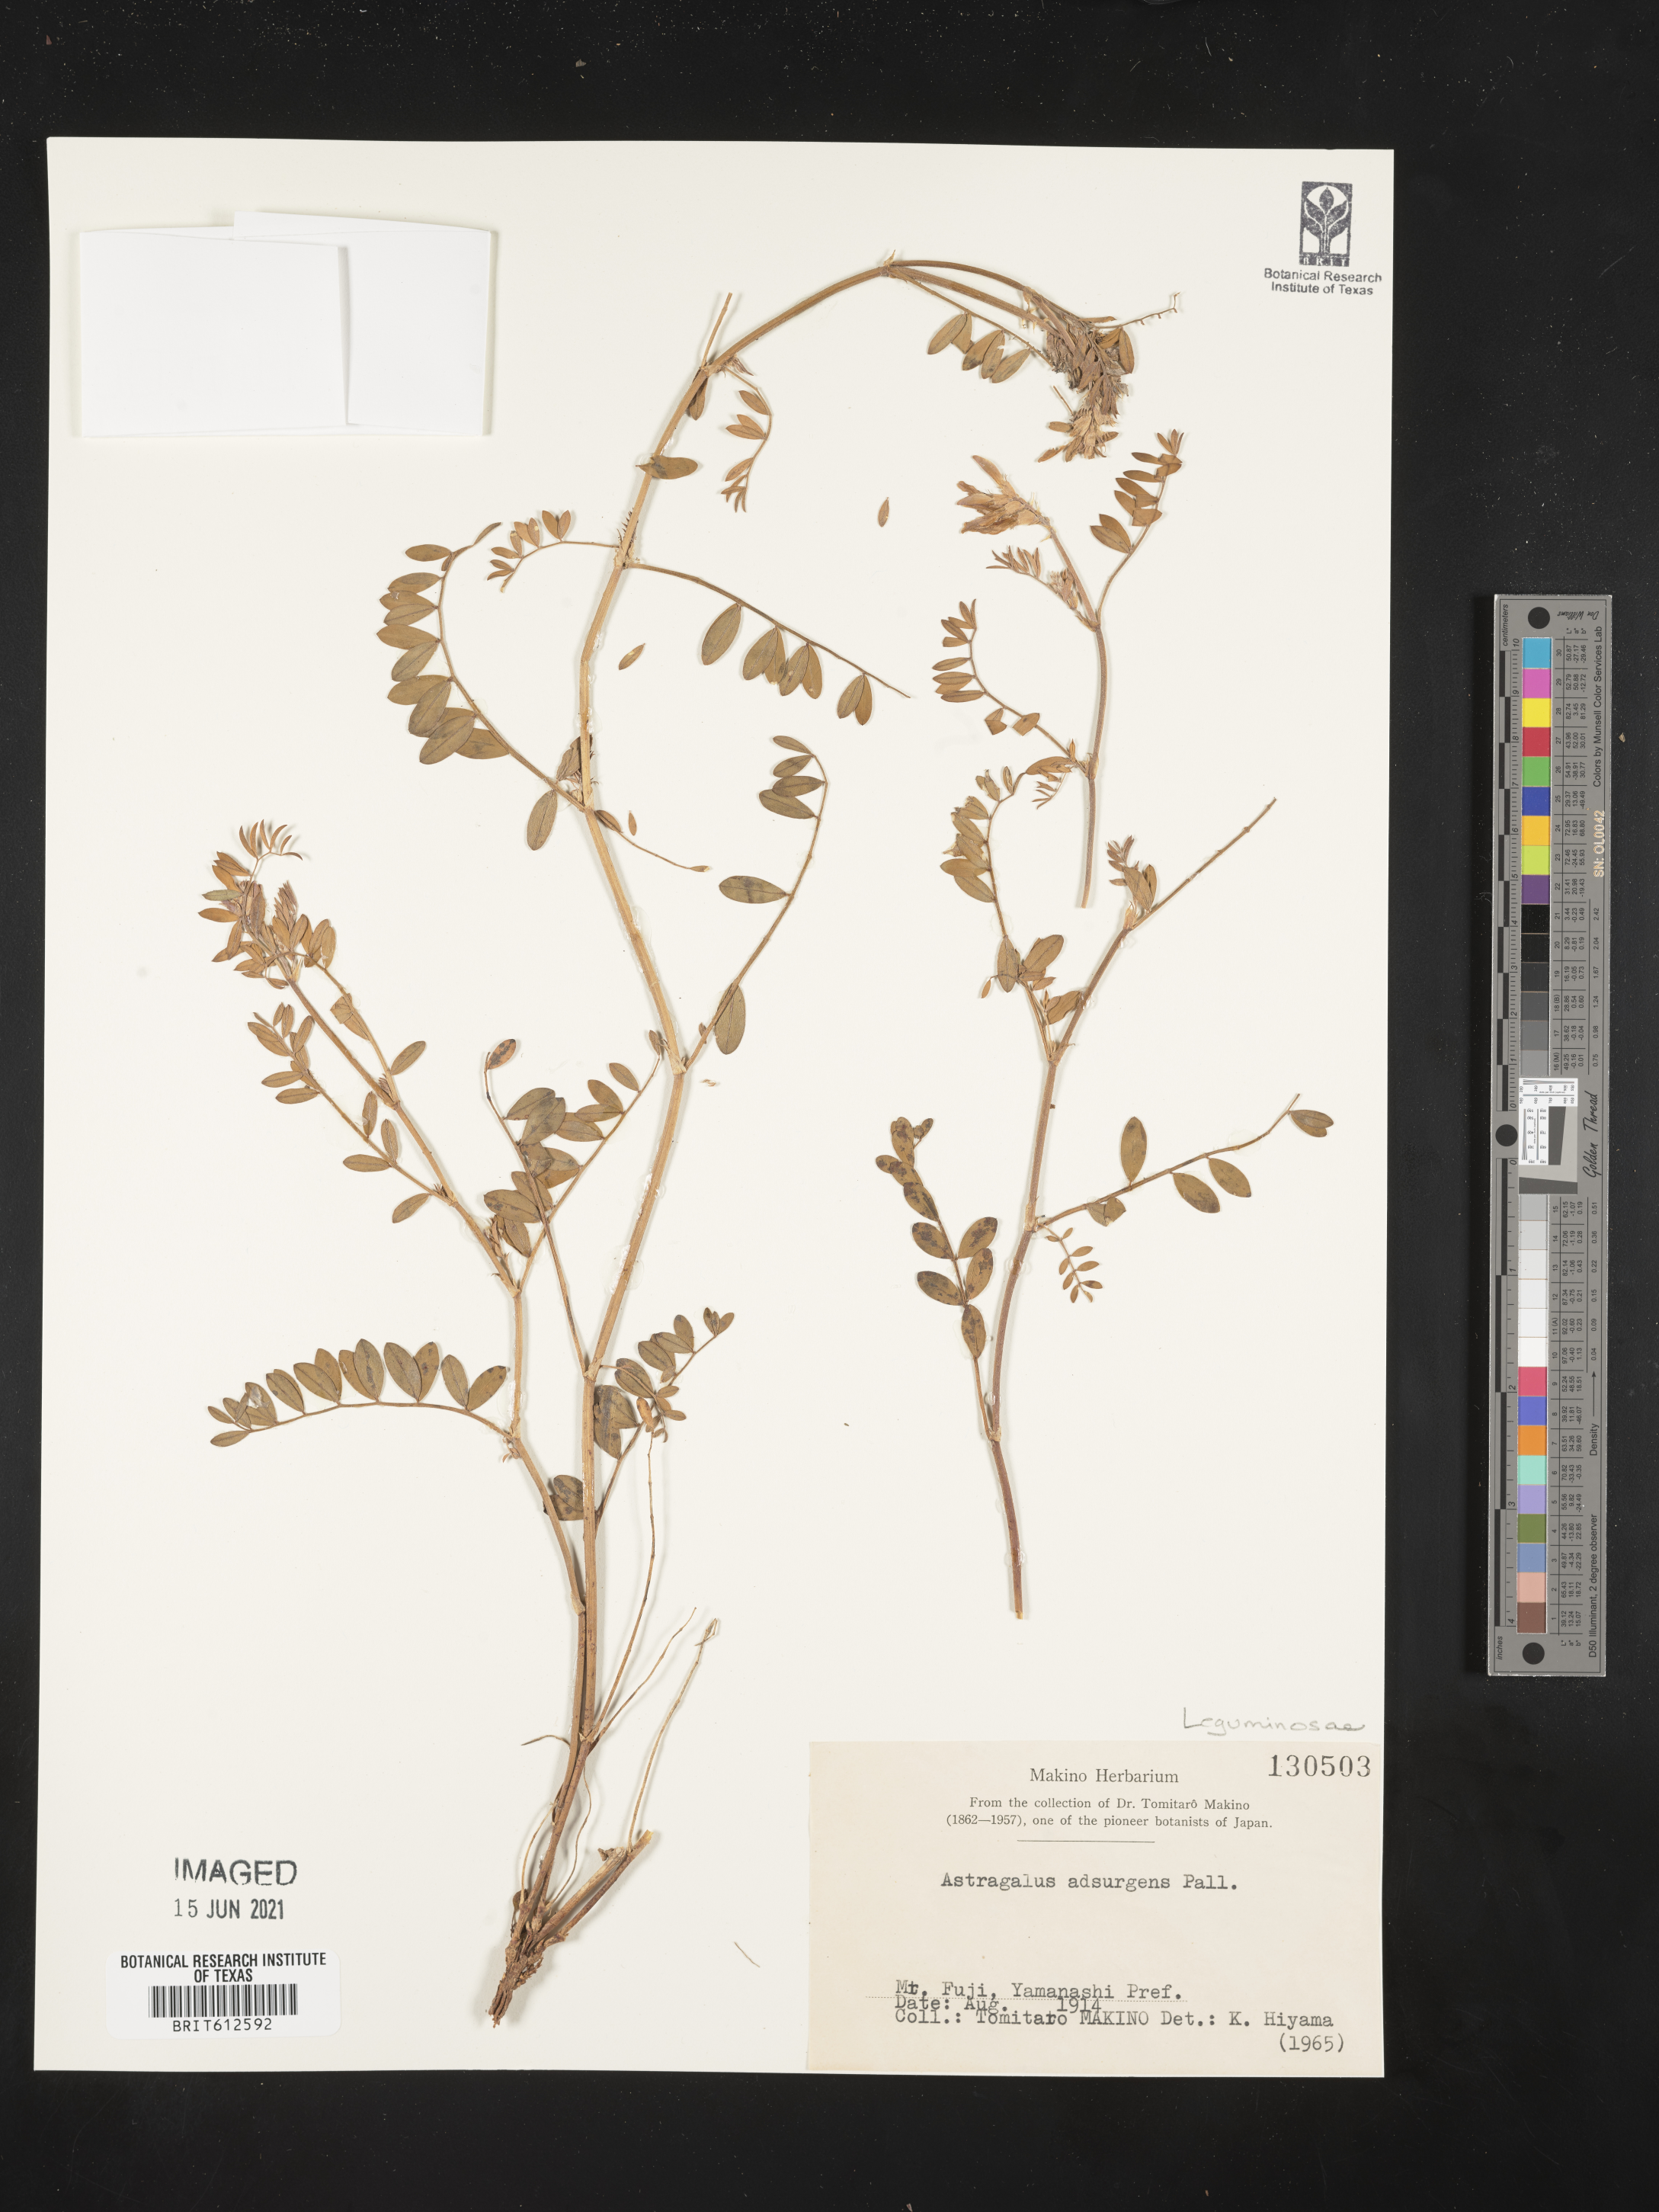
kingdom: Plantae
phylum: Tracheophyta
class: Magnoliopsida
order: Fabales
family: Fabaceae
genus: Astragalus
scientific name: Astragalus laxmannii
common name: Laxmann's milk-vetch
